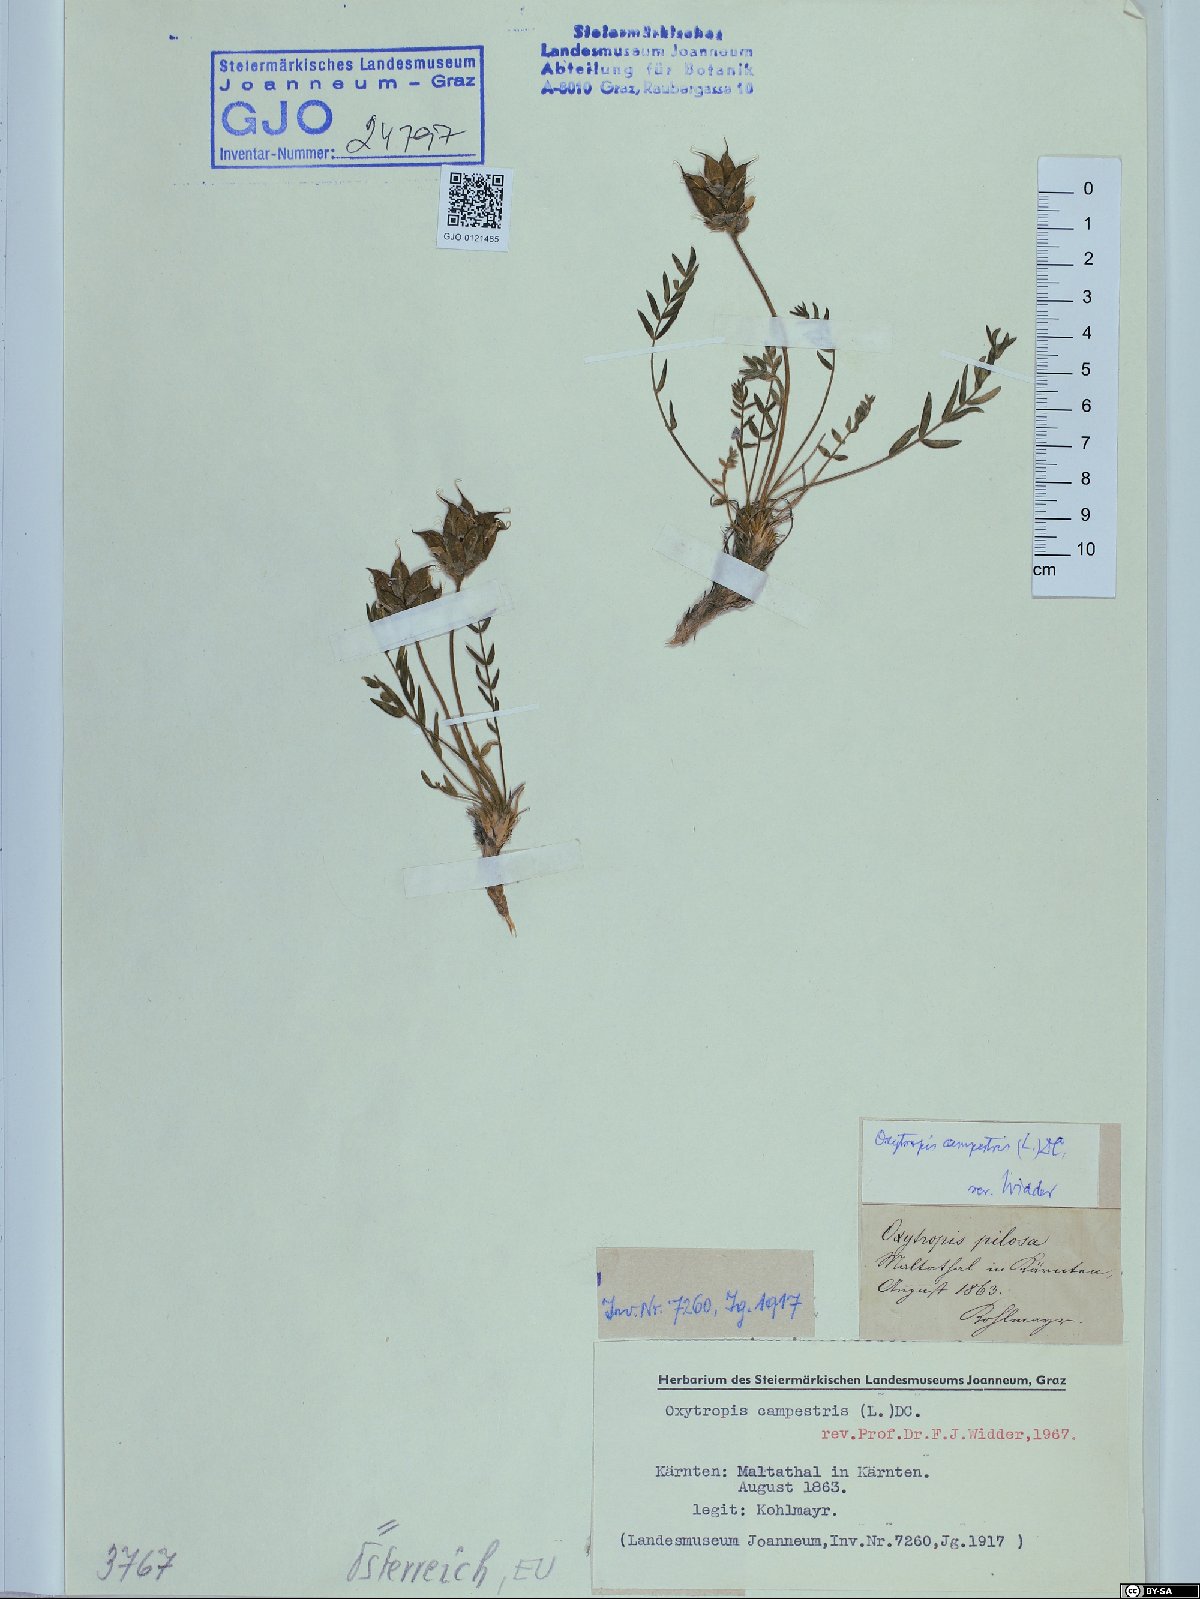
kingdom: Plantae
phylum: Tracheophyta
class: Magnoliopsida
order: Fabales
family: Fabaceae
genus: Oxytropis
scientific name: Oxytropis campestris
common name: Field locoweed
